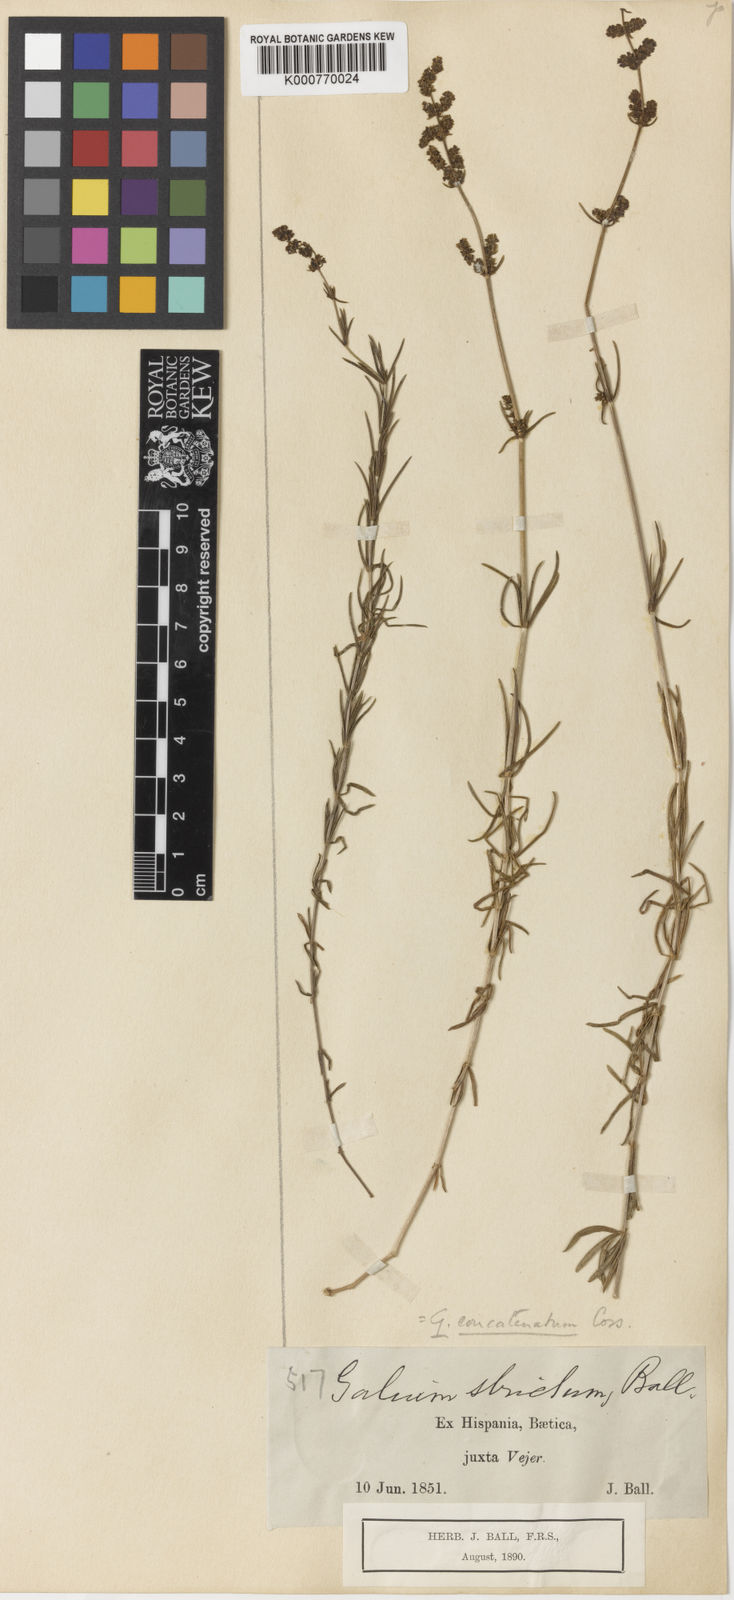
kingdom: Plantae
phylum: Tracheophyta
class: Magnoliopsida
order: Gentianales
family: Rubiaceae
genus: Asperula
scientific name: Asperula
